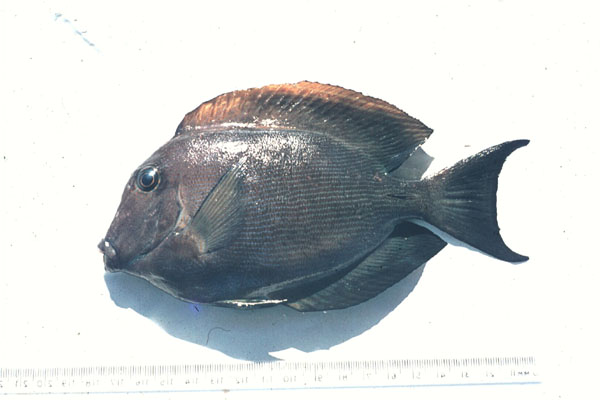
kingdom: Animalia
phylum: Chordata
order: Perciformes
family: Acanthuridae
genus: Acanthurus
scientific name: Acanthurus mata
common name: Bleeker's surgeonfish
